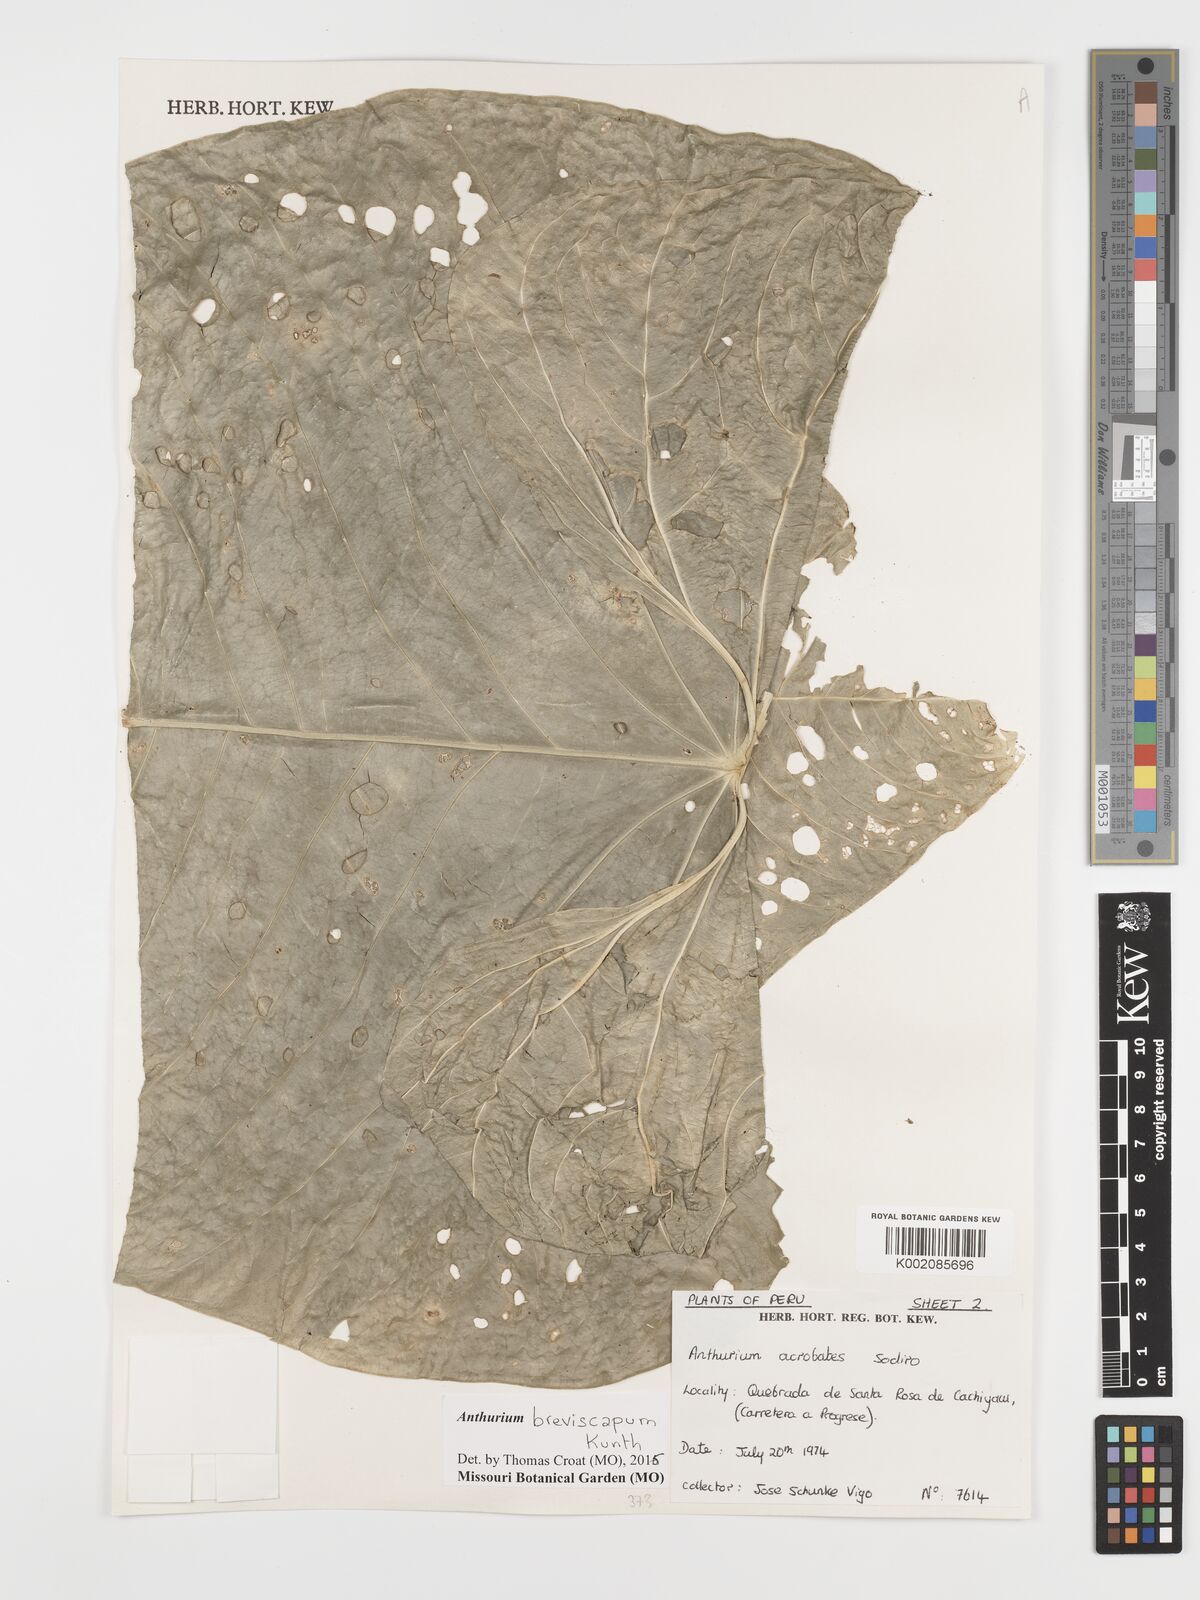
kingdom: Plantae
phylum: Tracheophyta
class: Liliopsida
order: Alismatales
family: Araceae
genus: Anthurium
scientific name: Anthurium breviscapum
